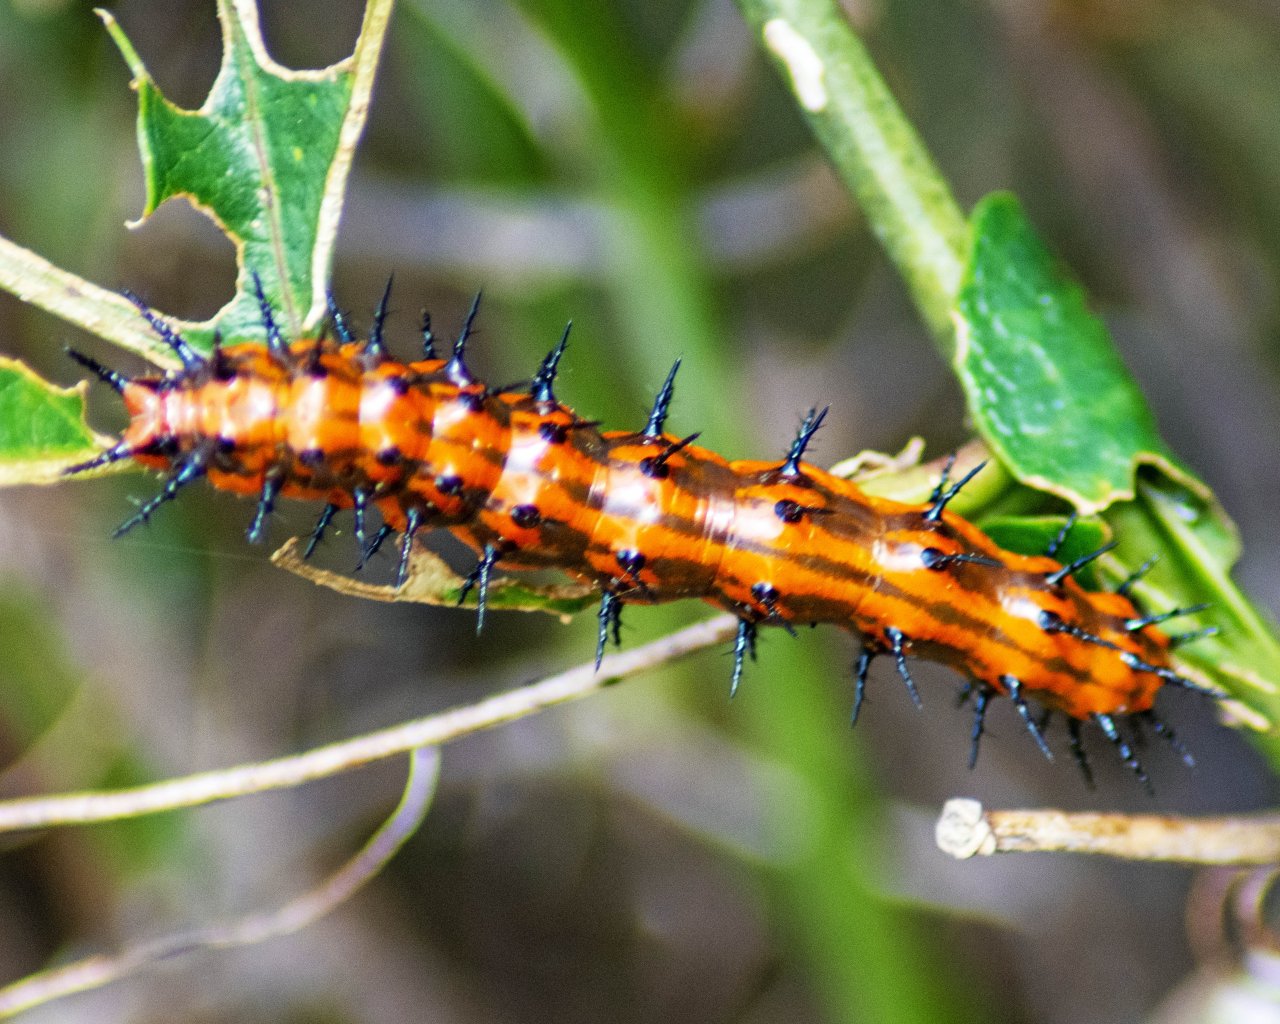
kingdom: Animalia
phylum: Arthropoda
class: Insecta
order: Lepidoptera
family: Nymphalidae
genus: Dione
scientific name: Dione vanillae
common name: Gulf Fritillary
